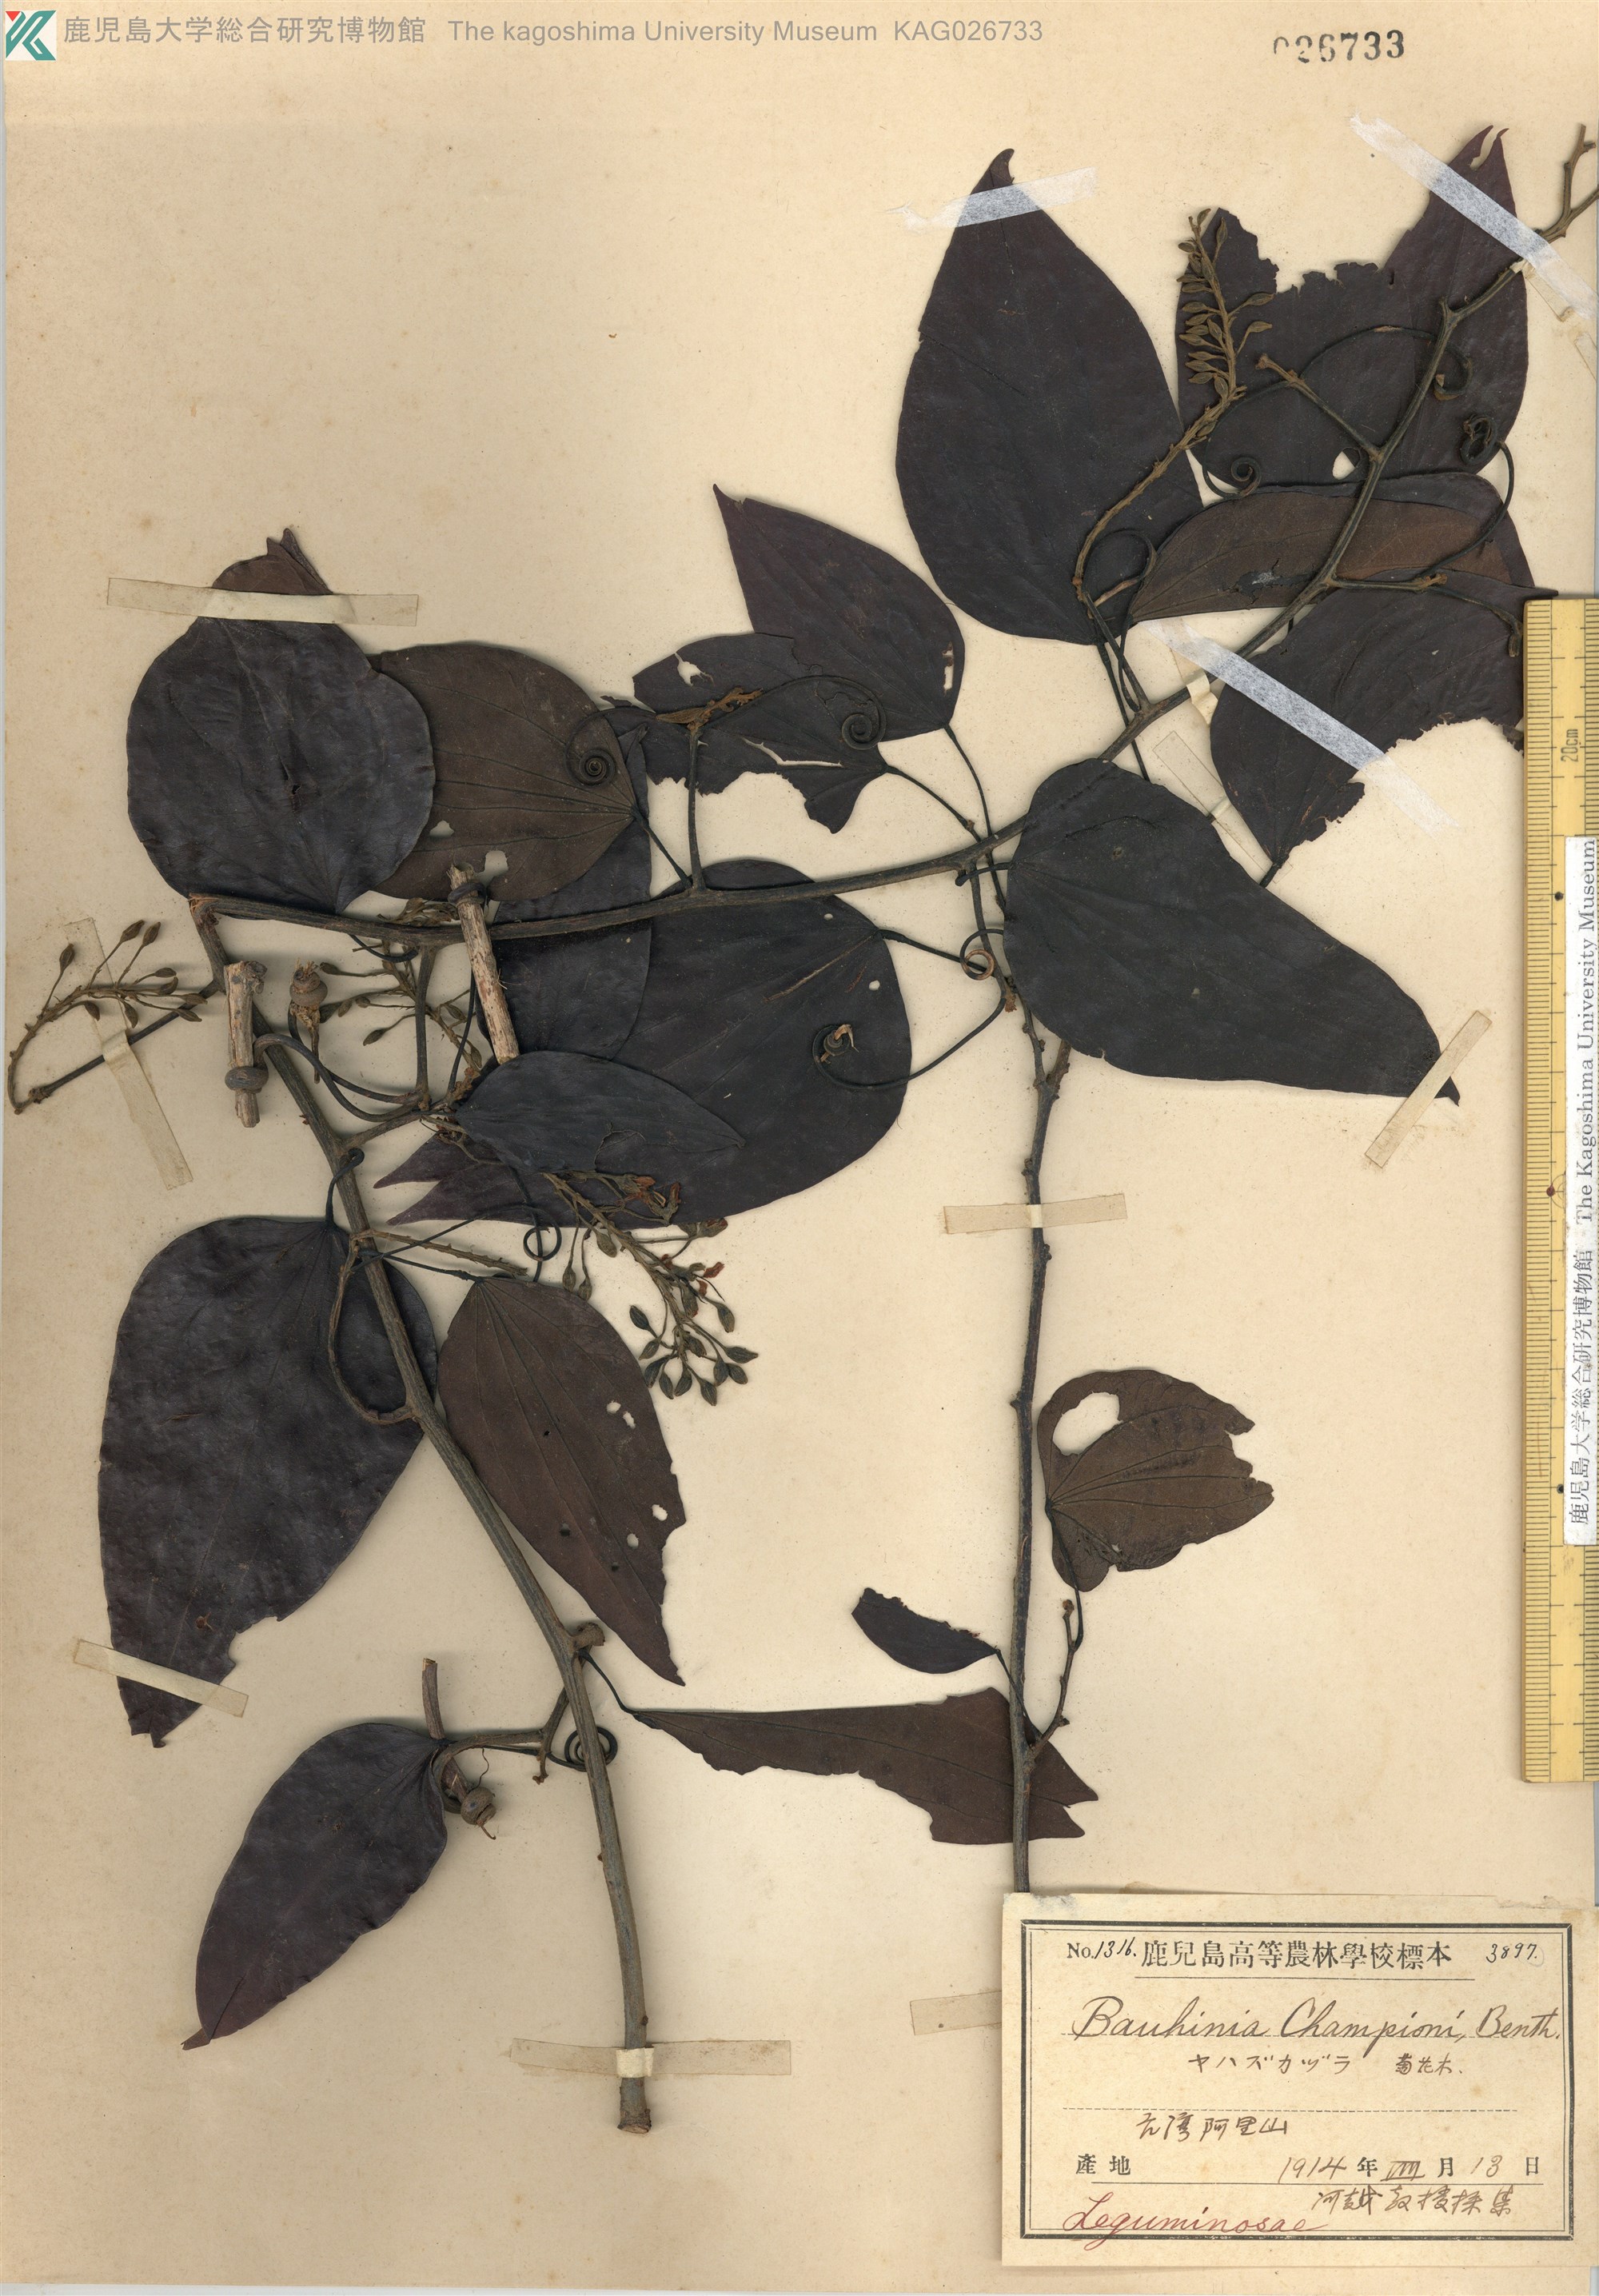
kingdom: Plantae
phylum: Tracheophyta
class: Magnoliopsida
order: Fabales
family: Fabaceae
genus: Phanera
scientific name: Phanera championii
